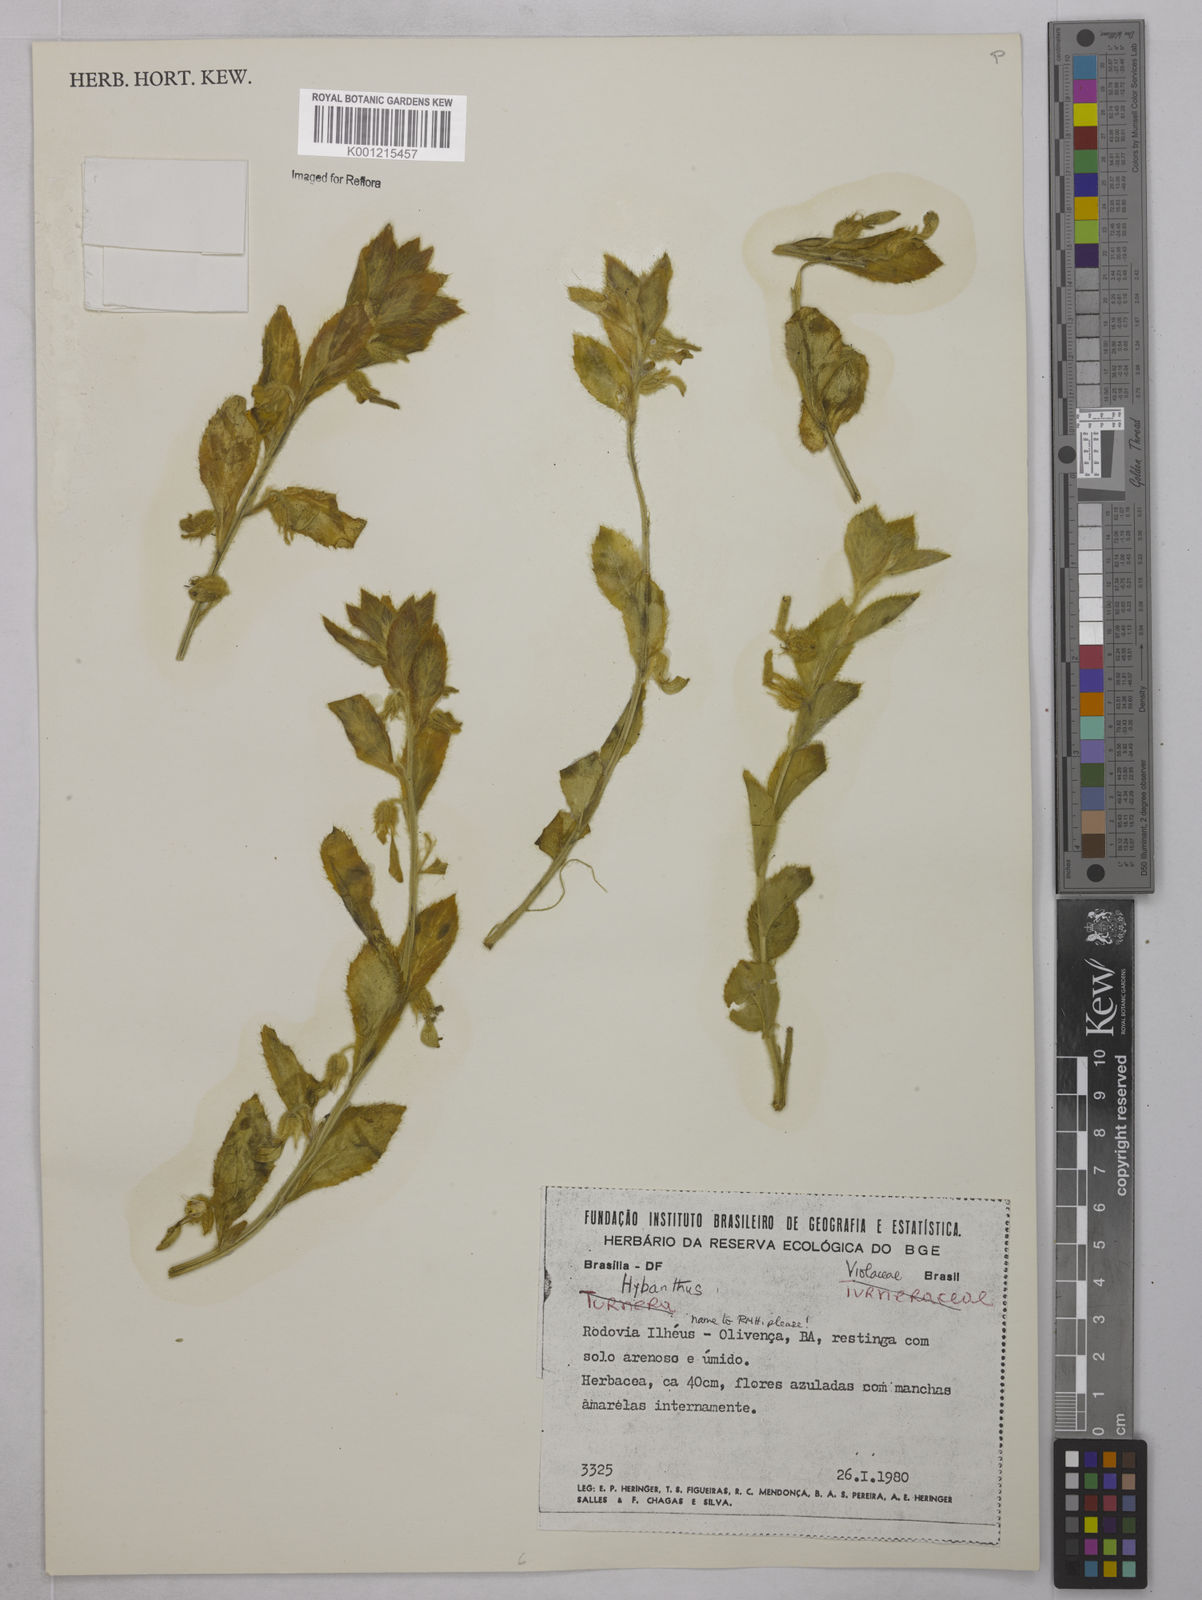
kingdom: Plantae
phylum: Tracheophyta
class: Magnoliopsida
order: Malpighiales
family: Violaceae
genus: Hybanthus
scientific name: Hybanthus
